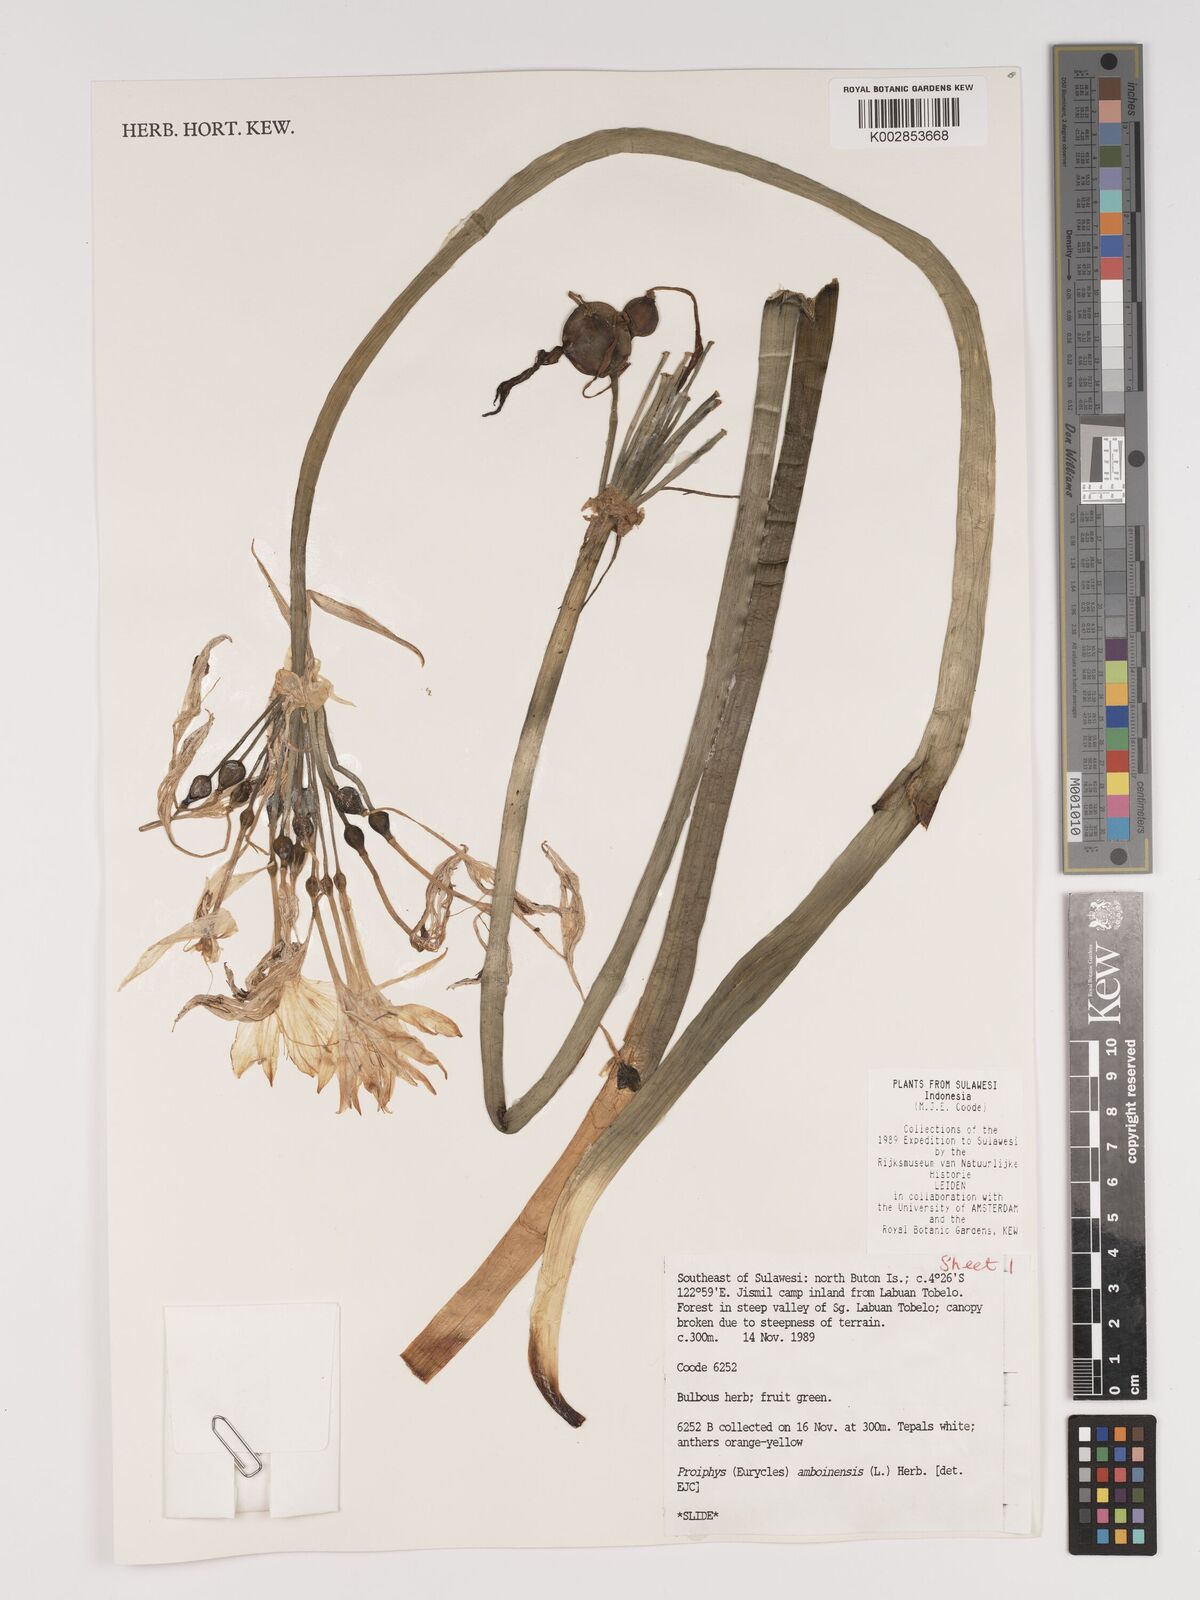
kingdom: Plantae
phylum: Tracheophyta
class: Liliopsida
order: Asparagales
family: Amaryllidaceae
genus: Proiphys
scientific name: Proiphys amboinensis
